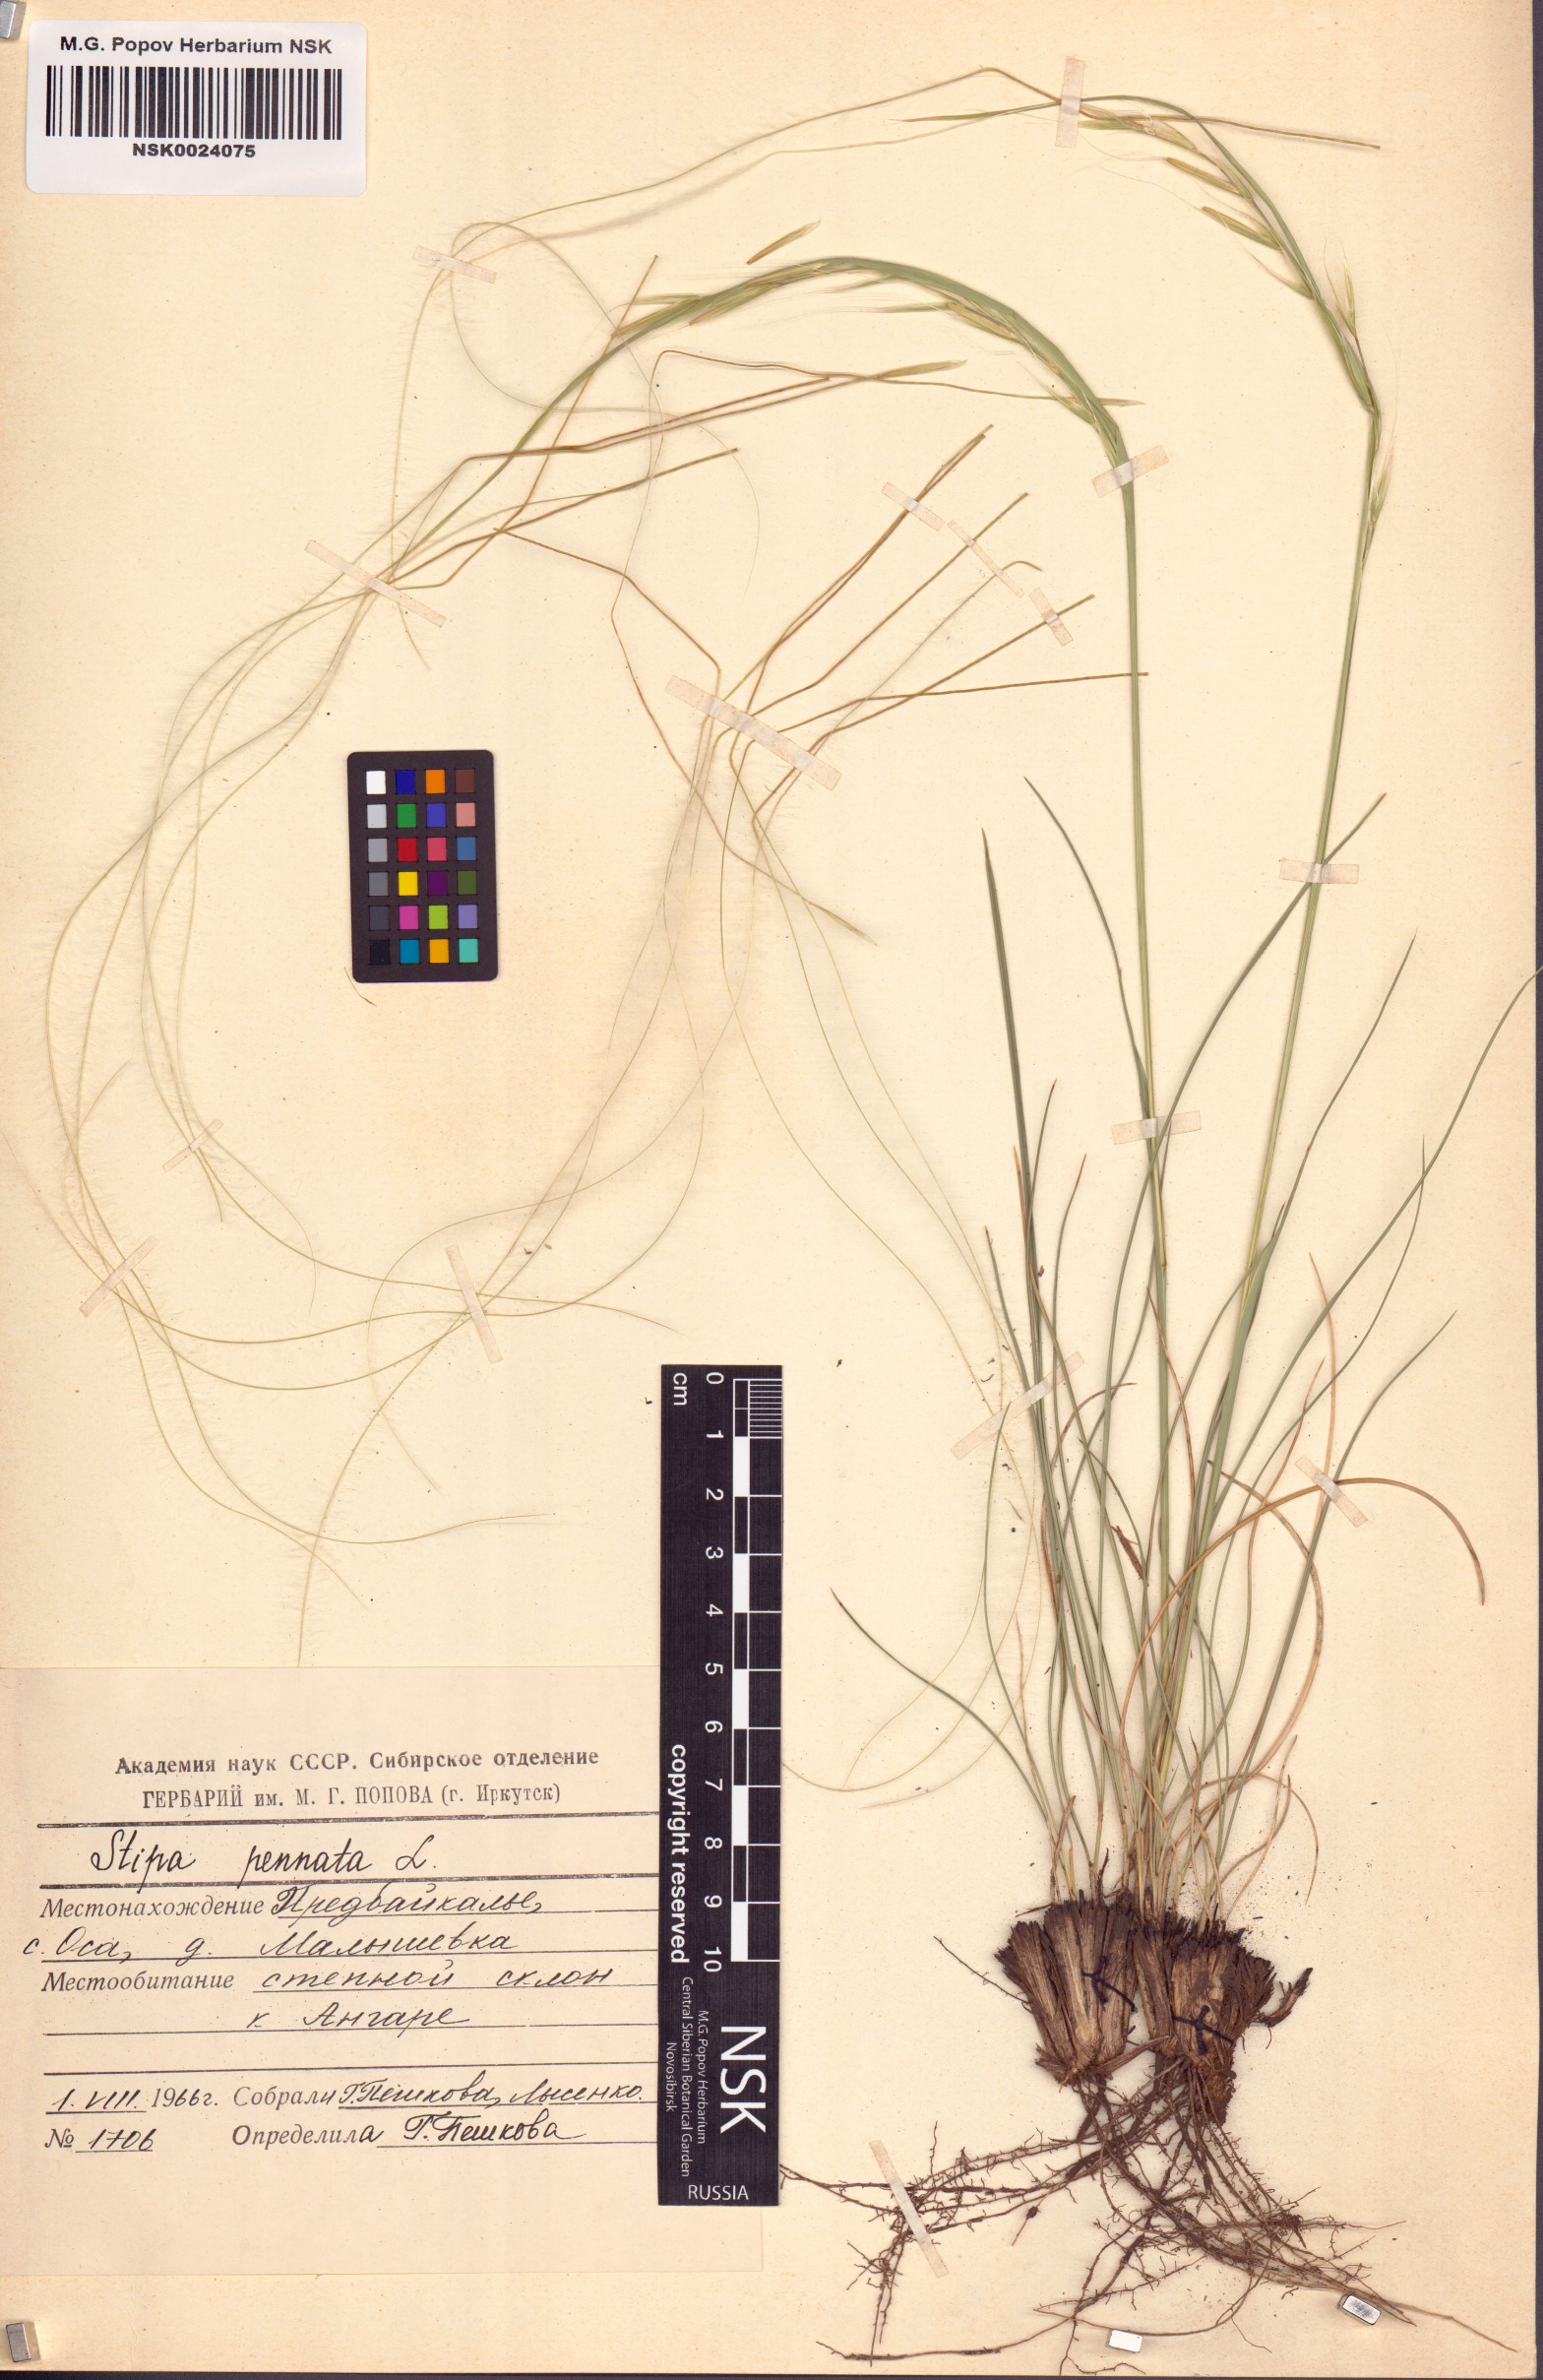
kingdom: Plantae
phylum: Tracheophyta
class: Liliopsida
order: Poales
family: Poaceae
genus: Stipa
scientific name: Stipa pennata
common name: European feather grass
